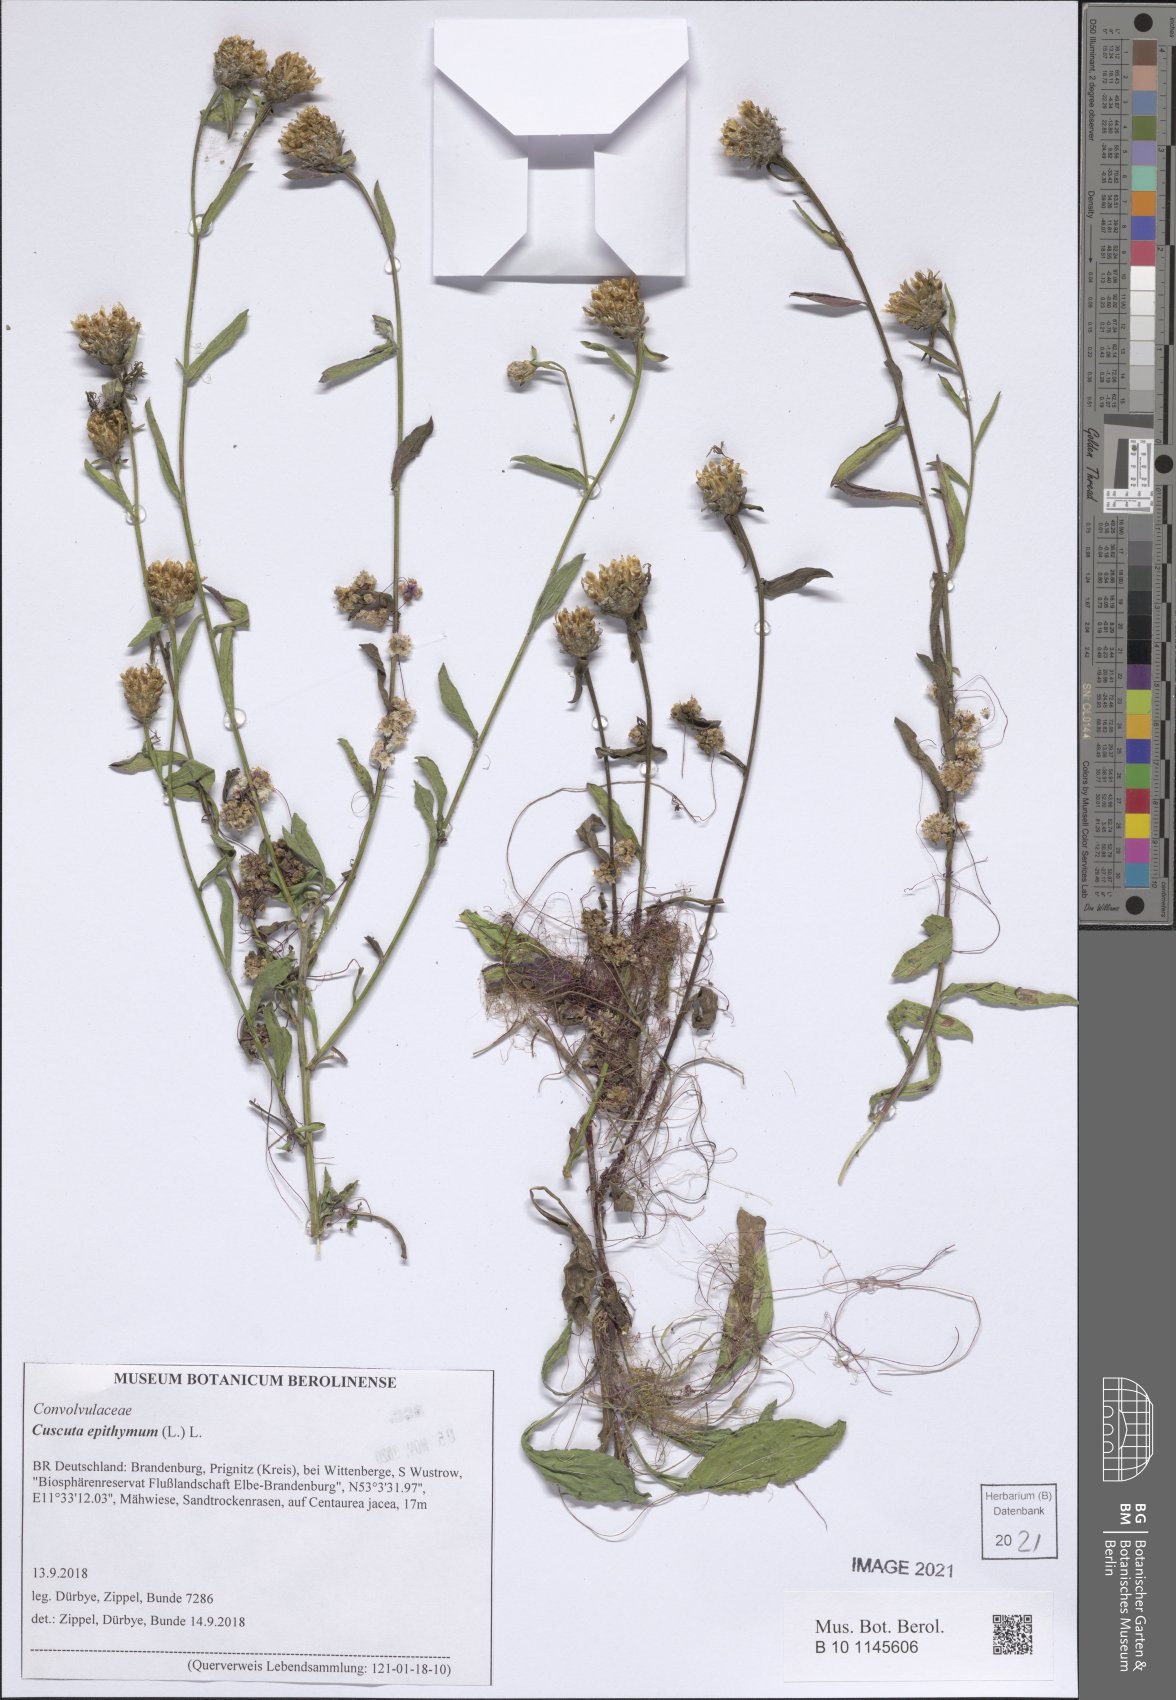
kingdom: Plantae
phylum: Tracheophyta
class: Magnoliopsida
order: Solanales
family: Convolvulaceae
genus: Cuscuta
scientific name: Cuscuta epithymum
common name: Clover dodder
